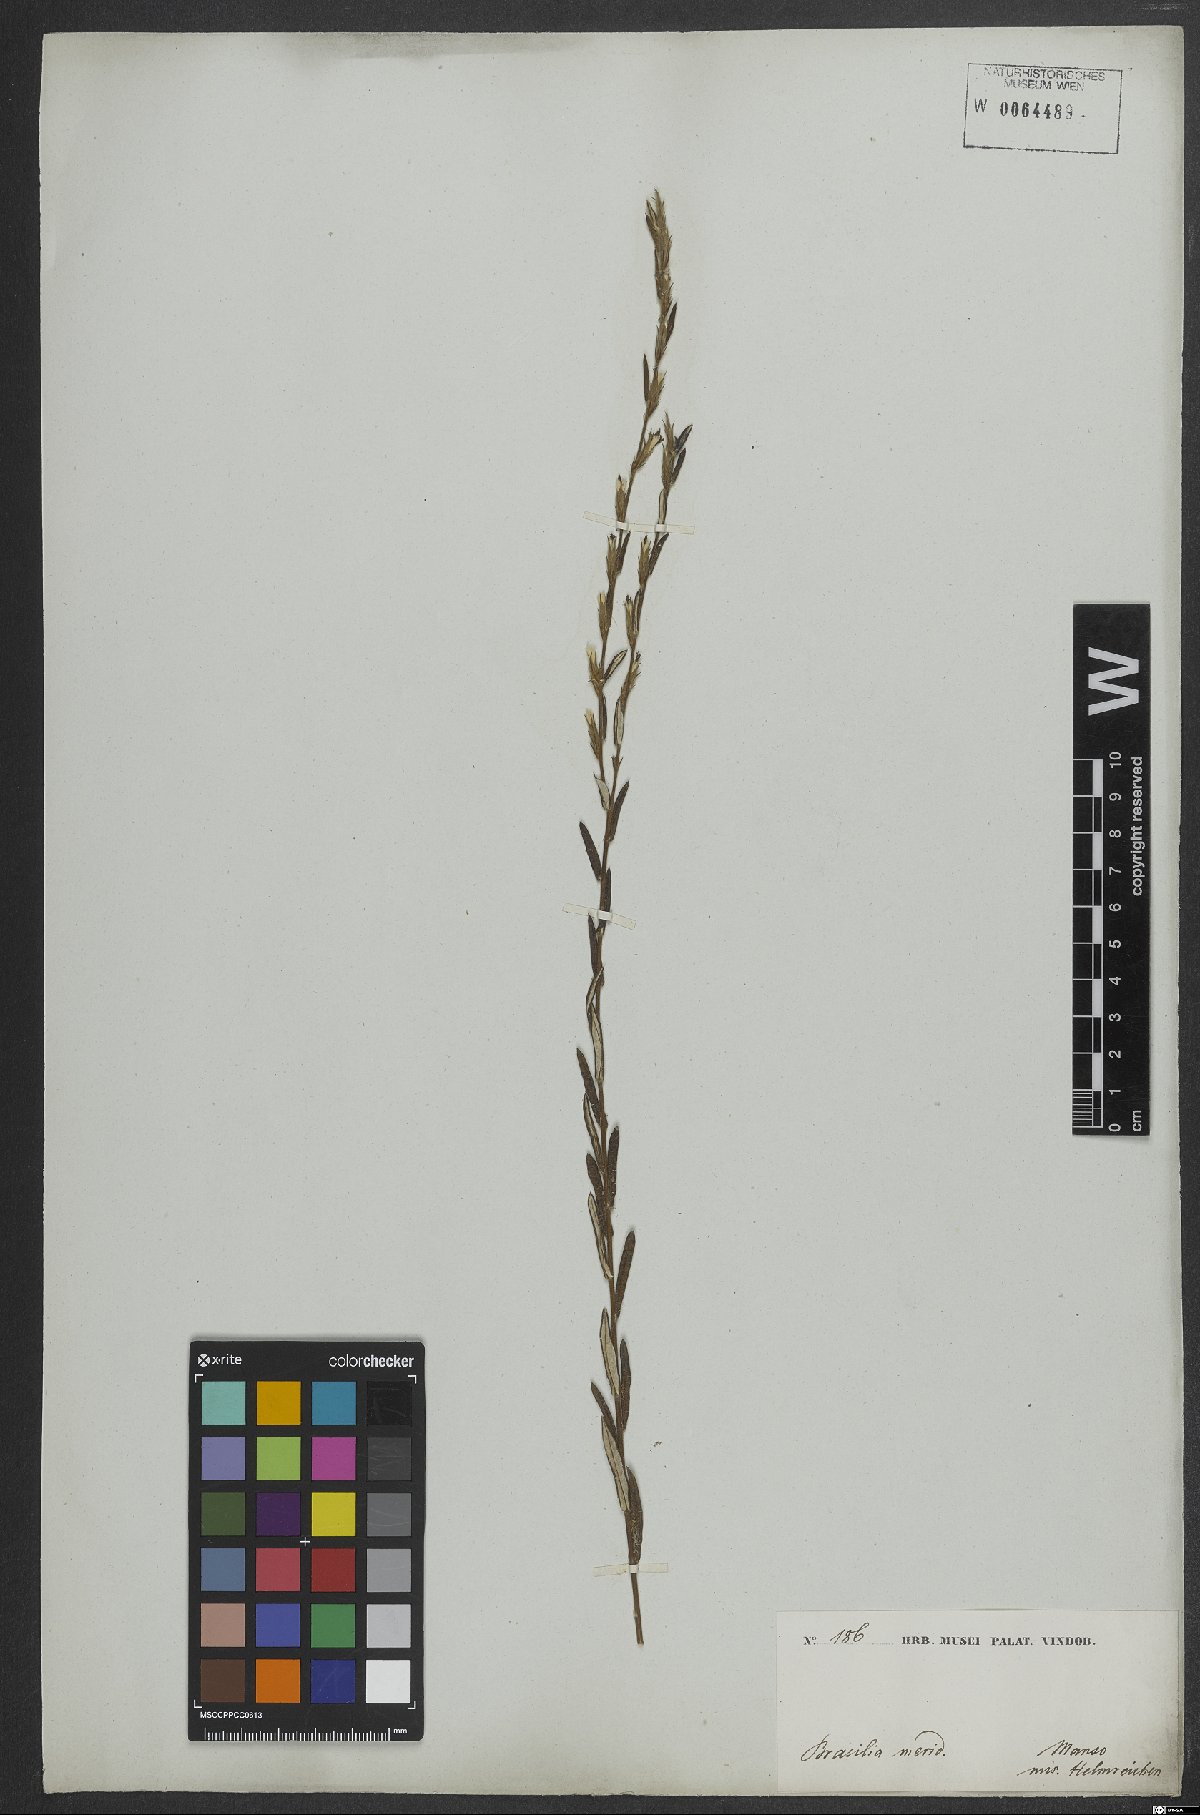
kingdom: Plantae
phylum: Tracheophyta
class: Magnoliopsida
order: Asterales
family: Asteraceae
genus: Stenocephalum
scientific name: Stenocephalum apiculatum
